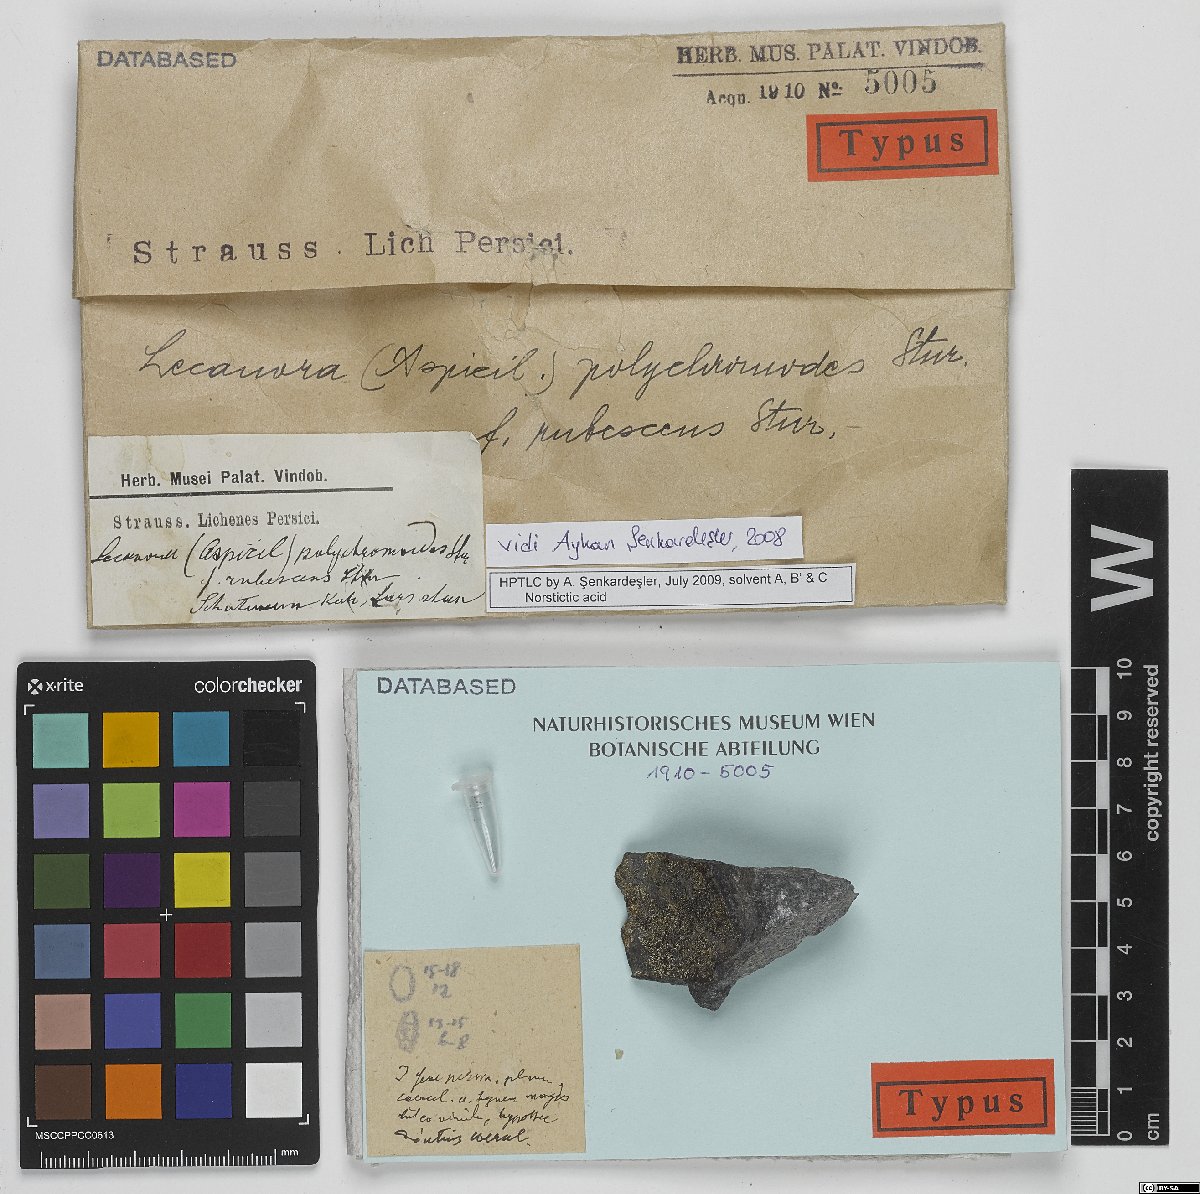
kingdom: Fungi
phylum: Ascomycota
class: Lecanoromycetes
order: Lecanorales
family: Lecanoraceae
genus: Lecanora
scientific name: Lecanora
